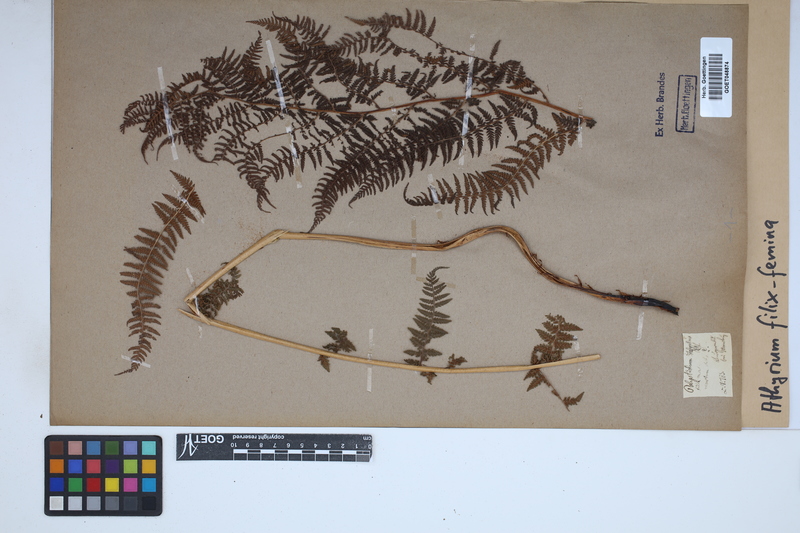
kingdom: Plantae
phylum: Tracheophyta
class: Polypodiopsida
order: Polypodiales
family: Athyriaceae
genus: Athyrium
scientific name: Athyrium filix-femina
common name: Lady fern
